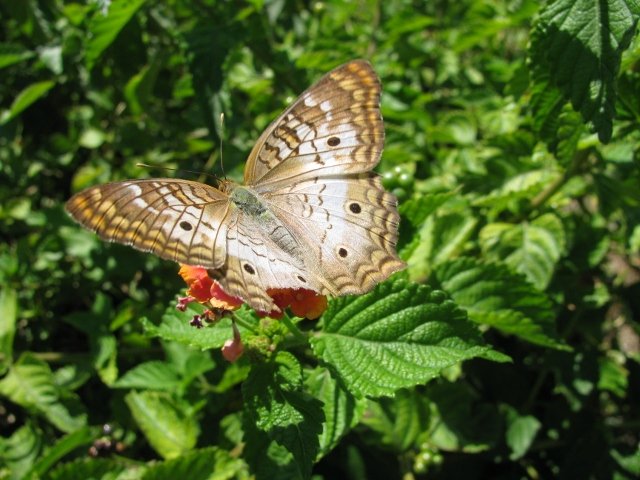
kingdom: Animalia
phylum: Arthropoda
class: Insecta
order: Lepidoptera
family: Nymphalidae
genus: Anartia
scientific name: Anartia jatrophae
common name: White Peacock
